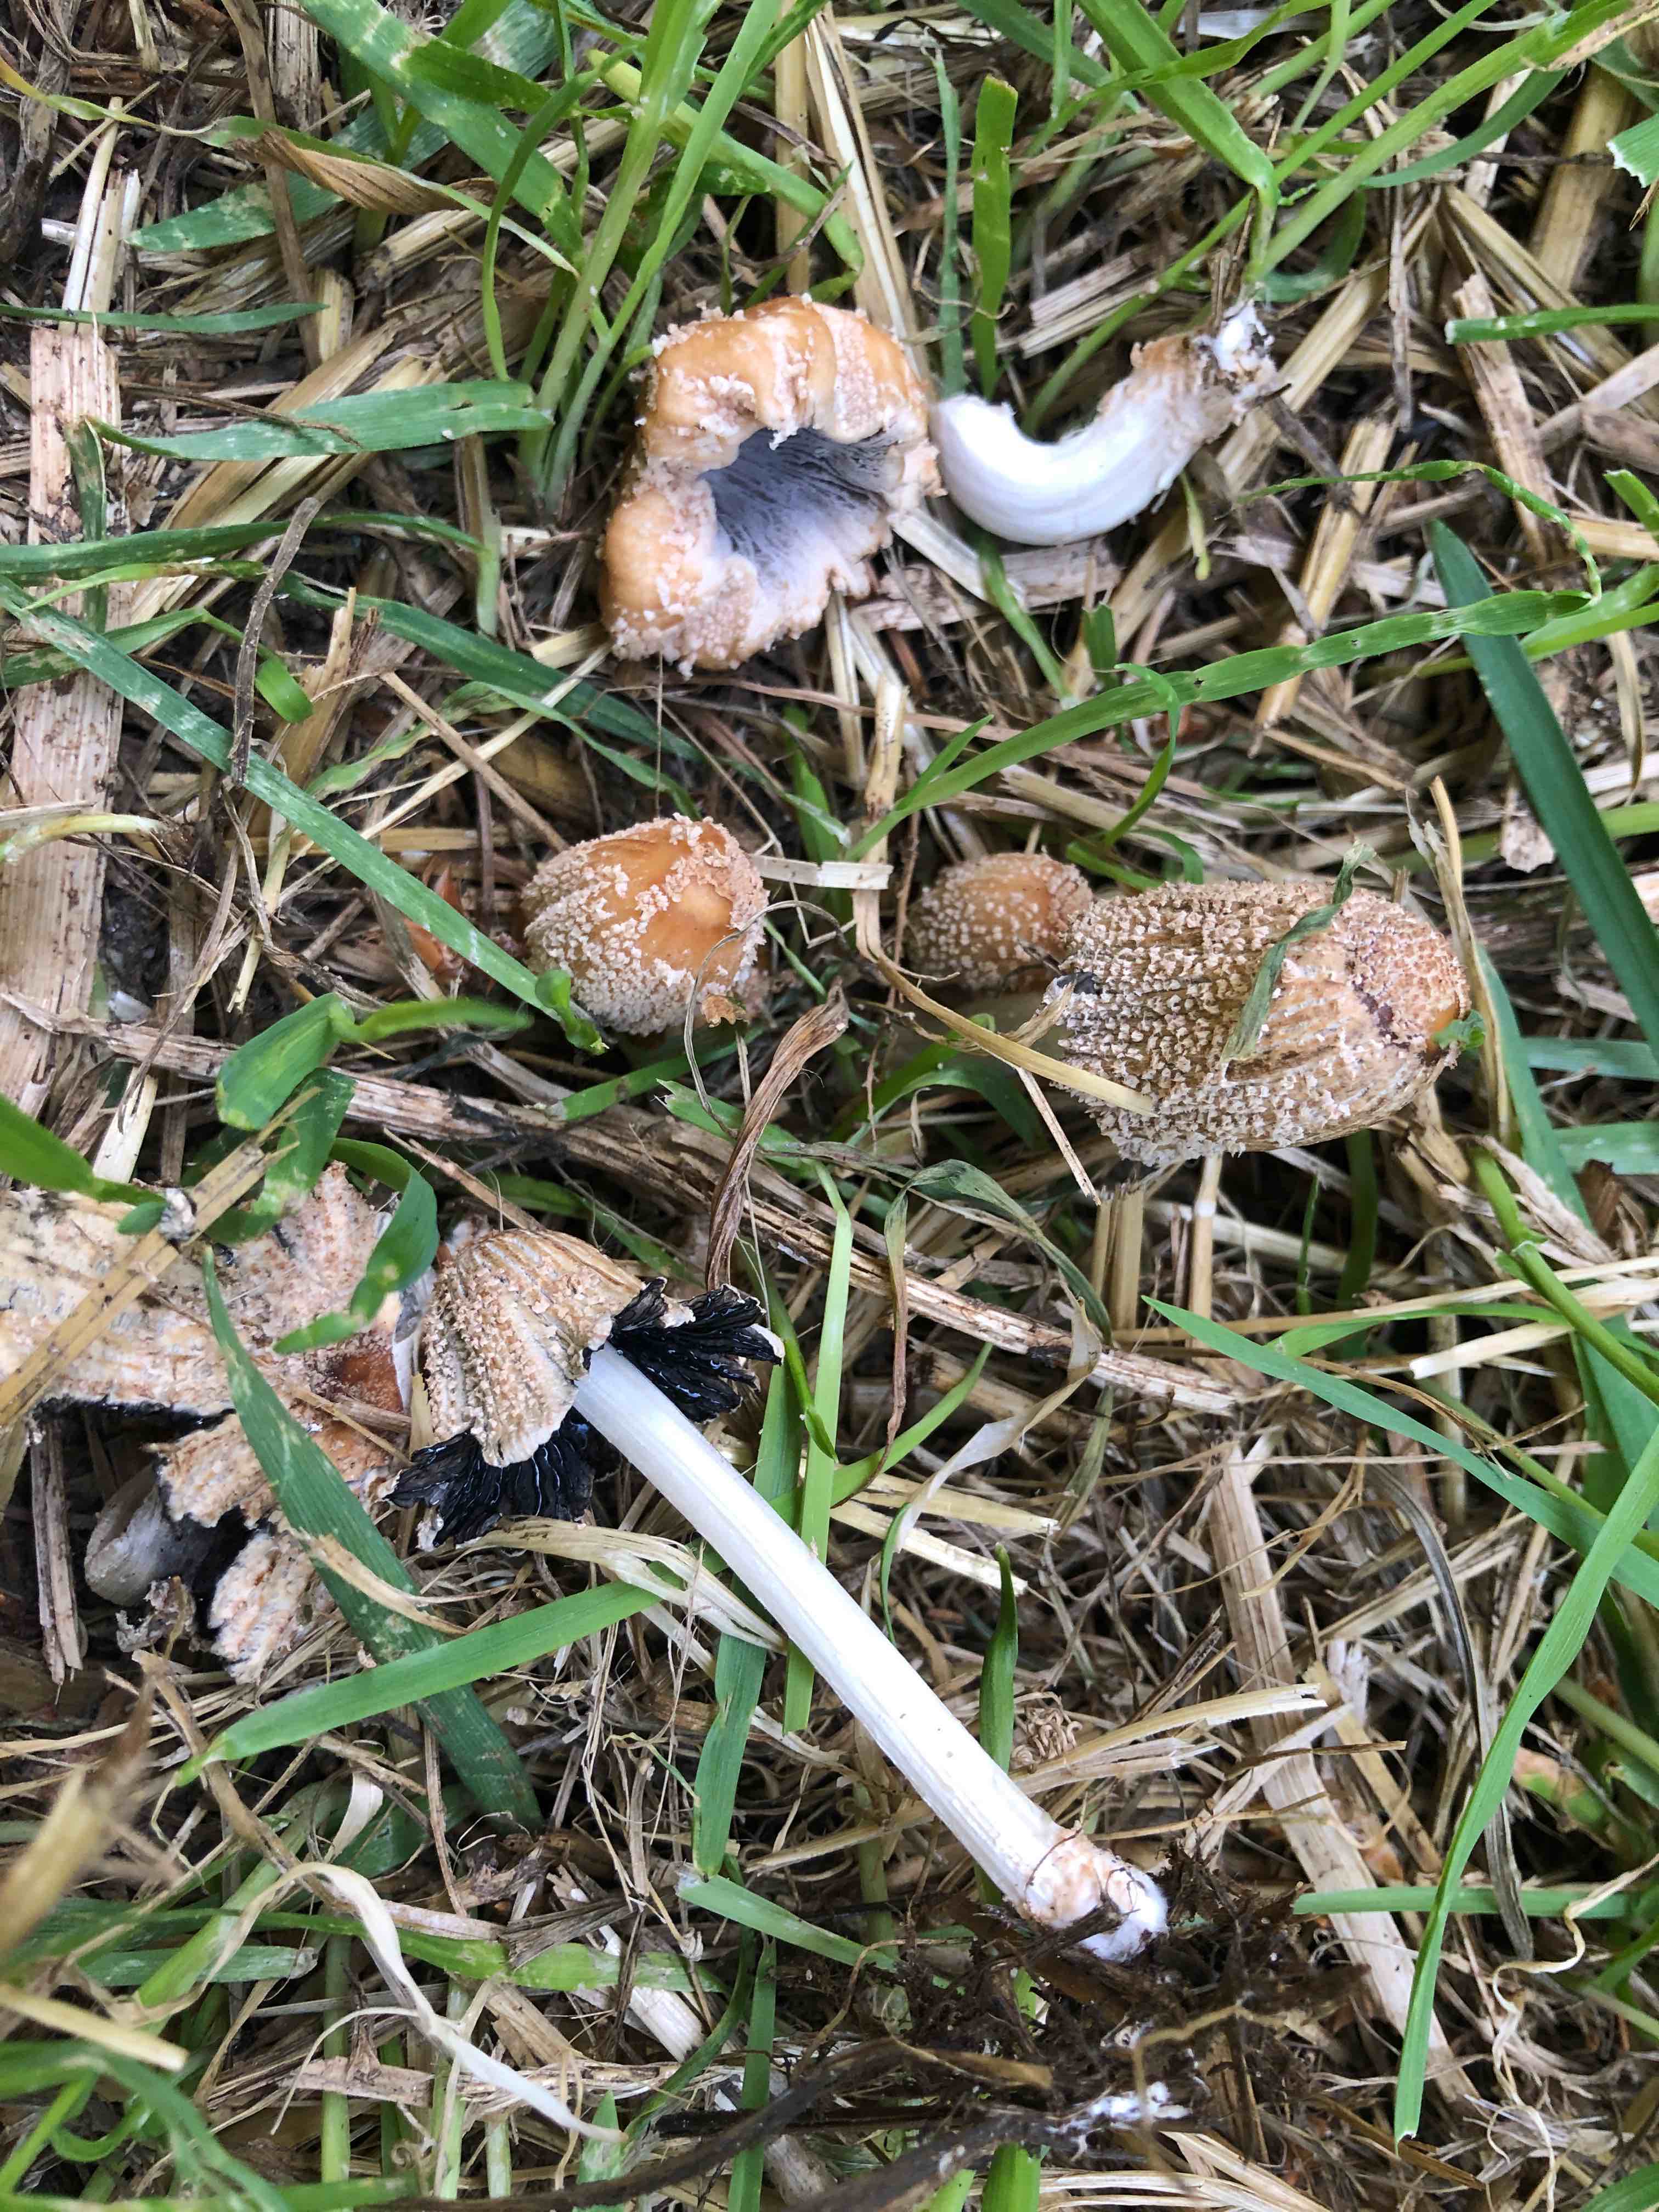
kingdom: Fungi
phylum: Basidiomycota
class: Agaricomycetes
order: Agaricales
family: Psathyrellaceae
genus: Coprinellus
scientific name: Coprinellus flocculosus
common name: fnugget blækhat
